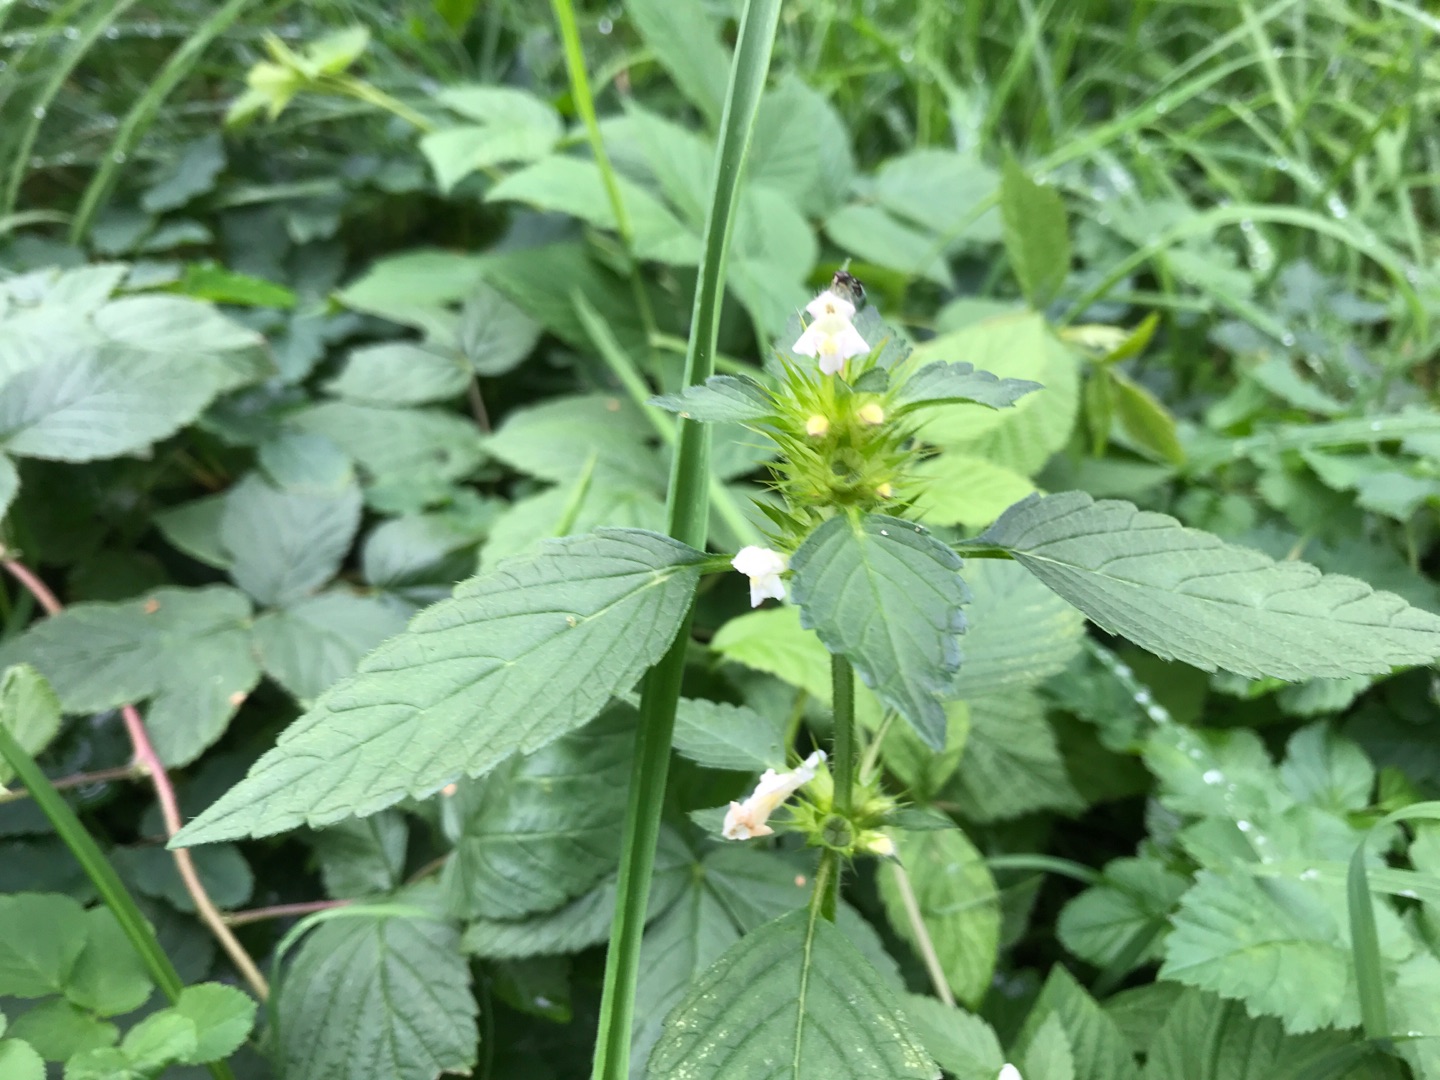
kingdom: Plantae
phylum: Tracheophyta
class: Magnoliopsida
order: Lamiales
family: Lamiaceae
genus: Galeopsis
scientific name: Galeopsis tetrahit
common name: Almindelig hanekro
